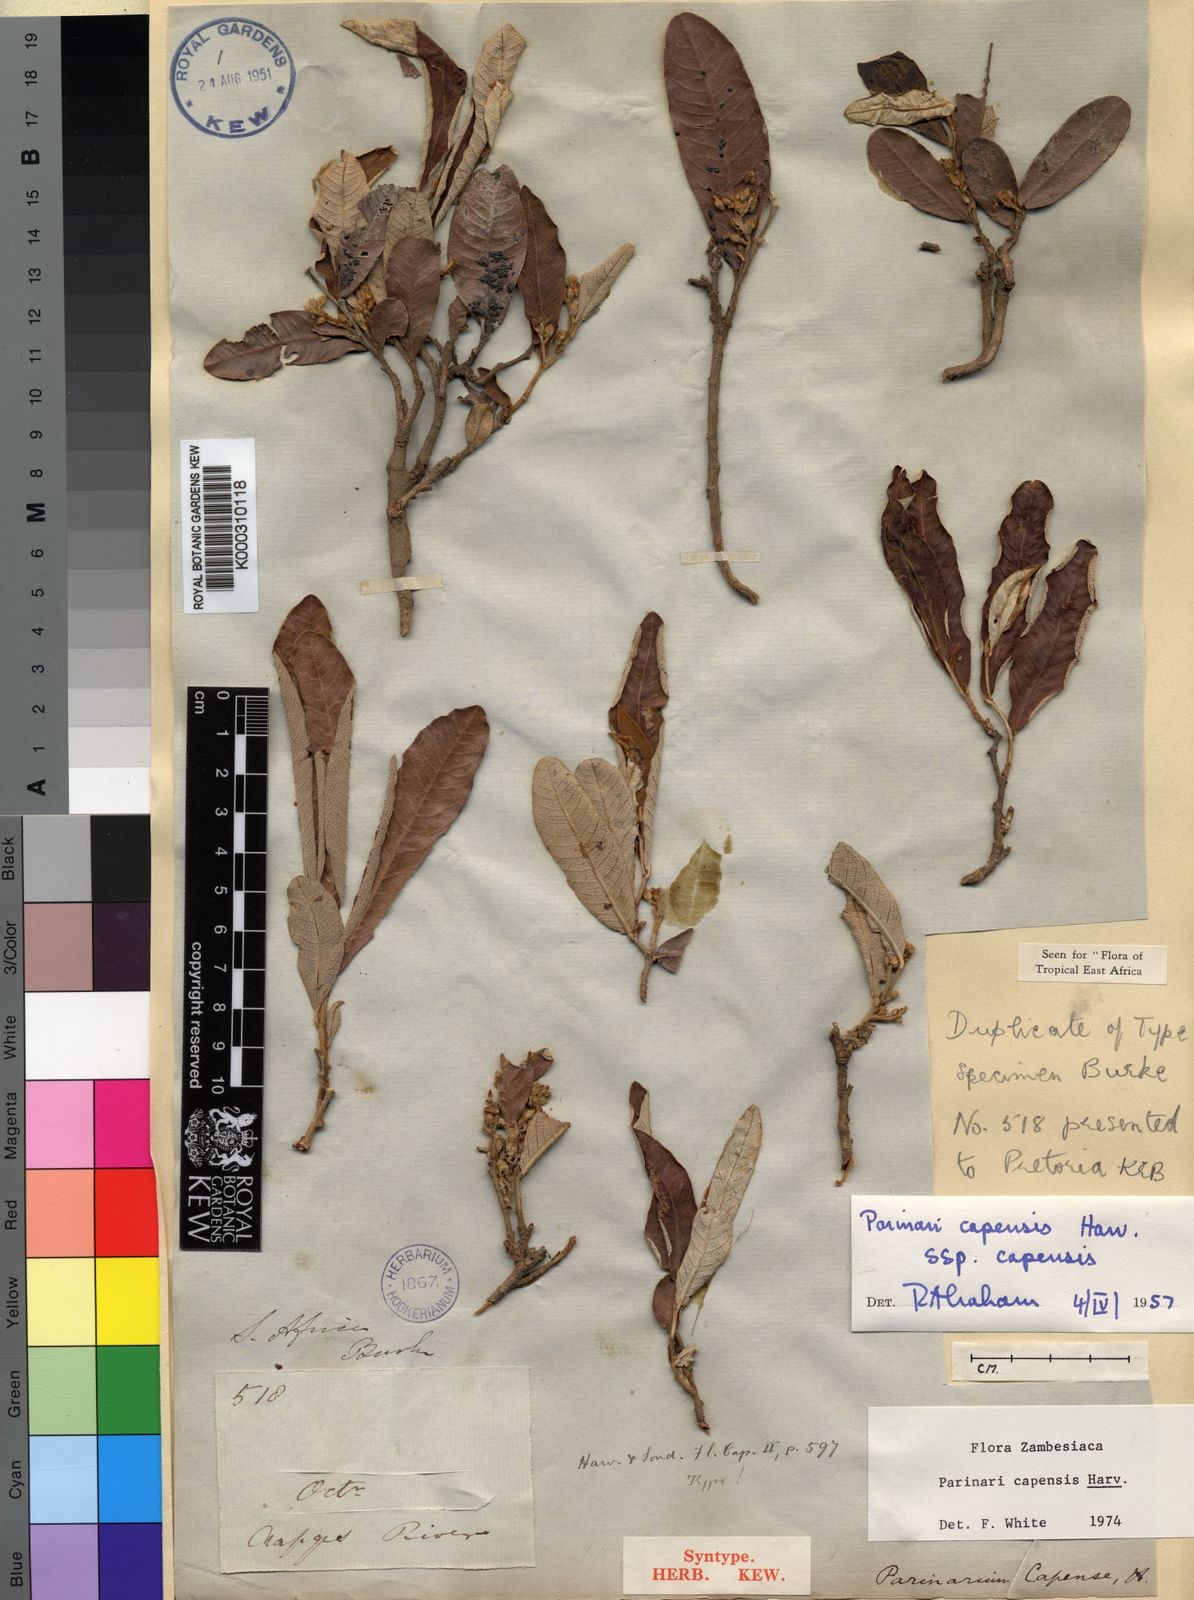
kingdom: Plantae
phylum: Tracheophyta
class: Magnoliopsida
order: Malpighiales
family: Chrysobalanaceae
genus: Parinari
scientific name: Parinari capensis
